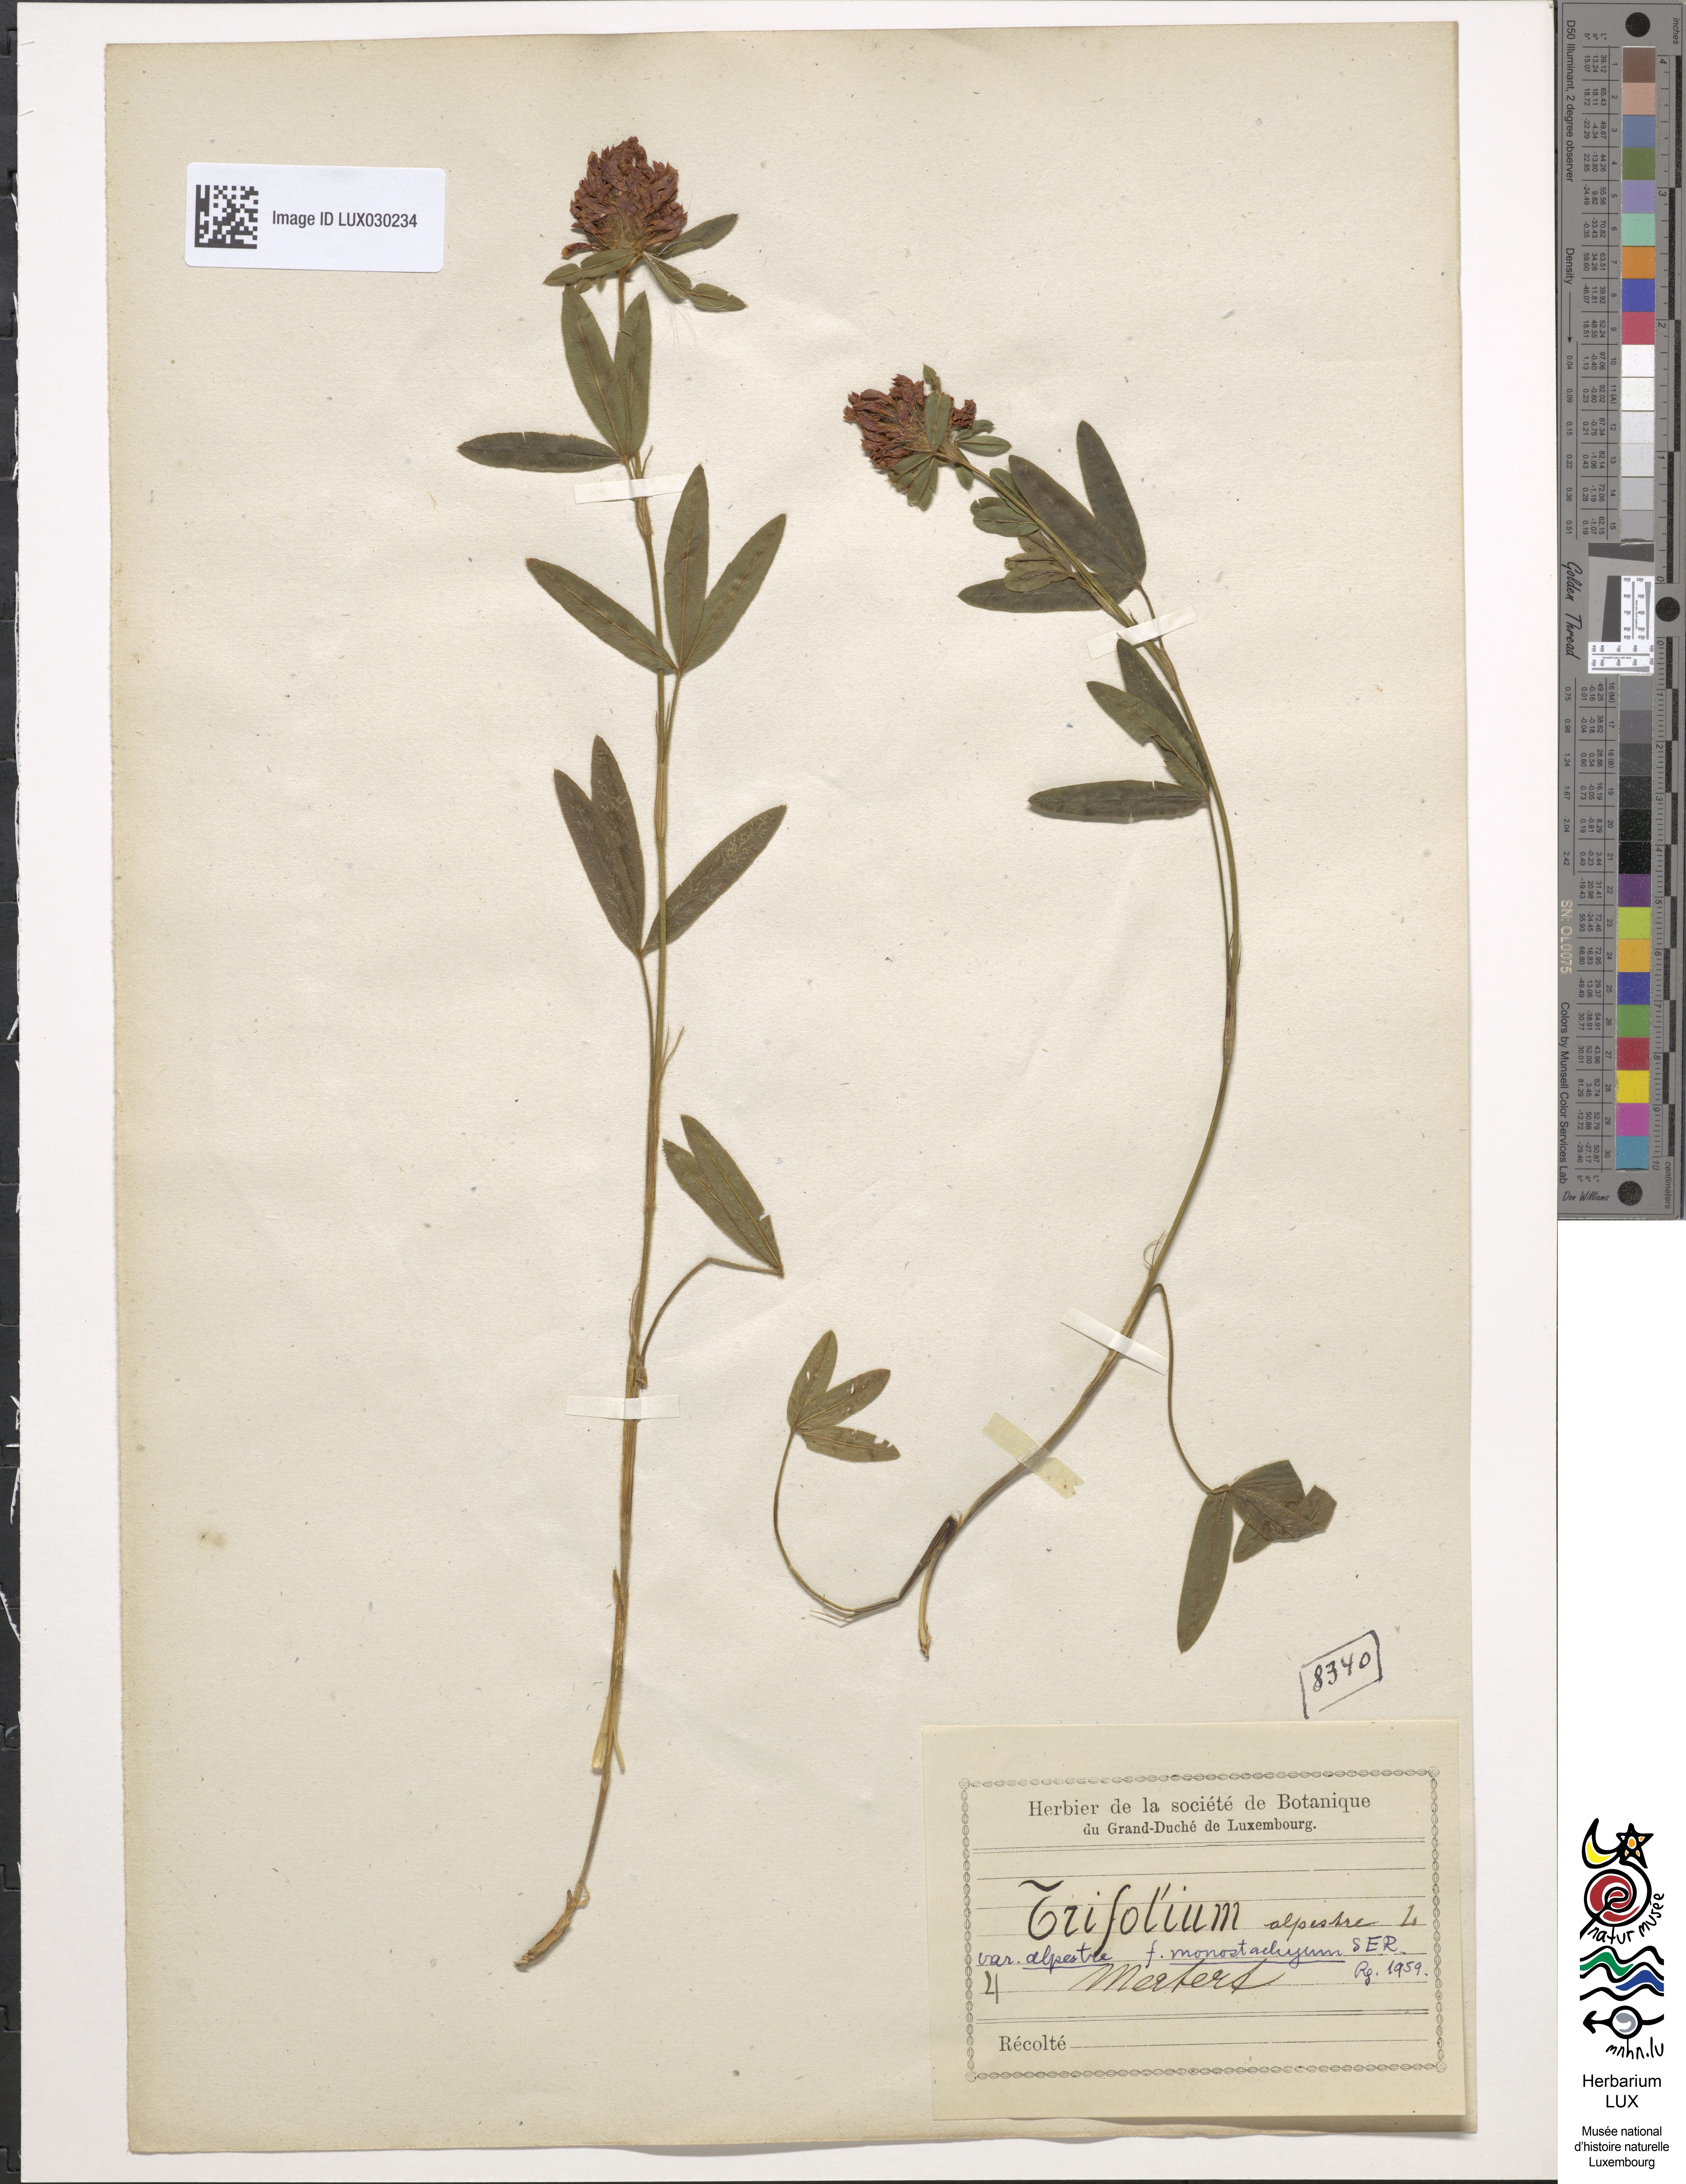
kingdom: Plantae
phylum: Tracheophyta
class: Magnoliopsida
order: Fabales
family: Fabaceae
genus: Trifolium
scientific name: Trifolium alpestre
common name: Owl-head clover
